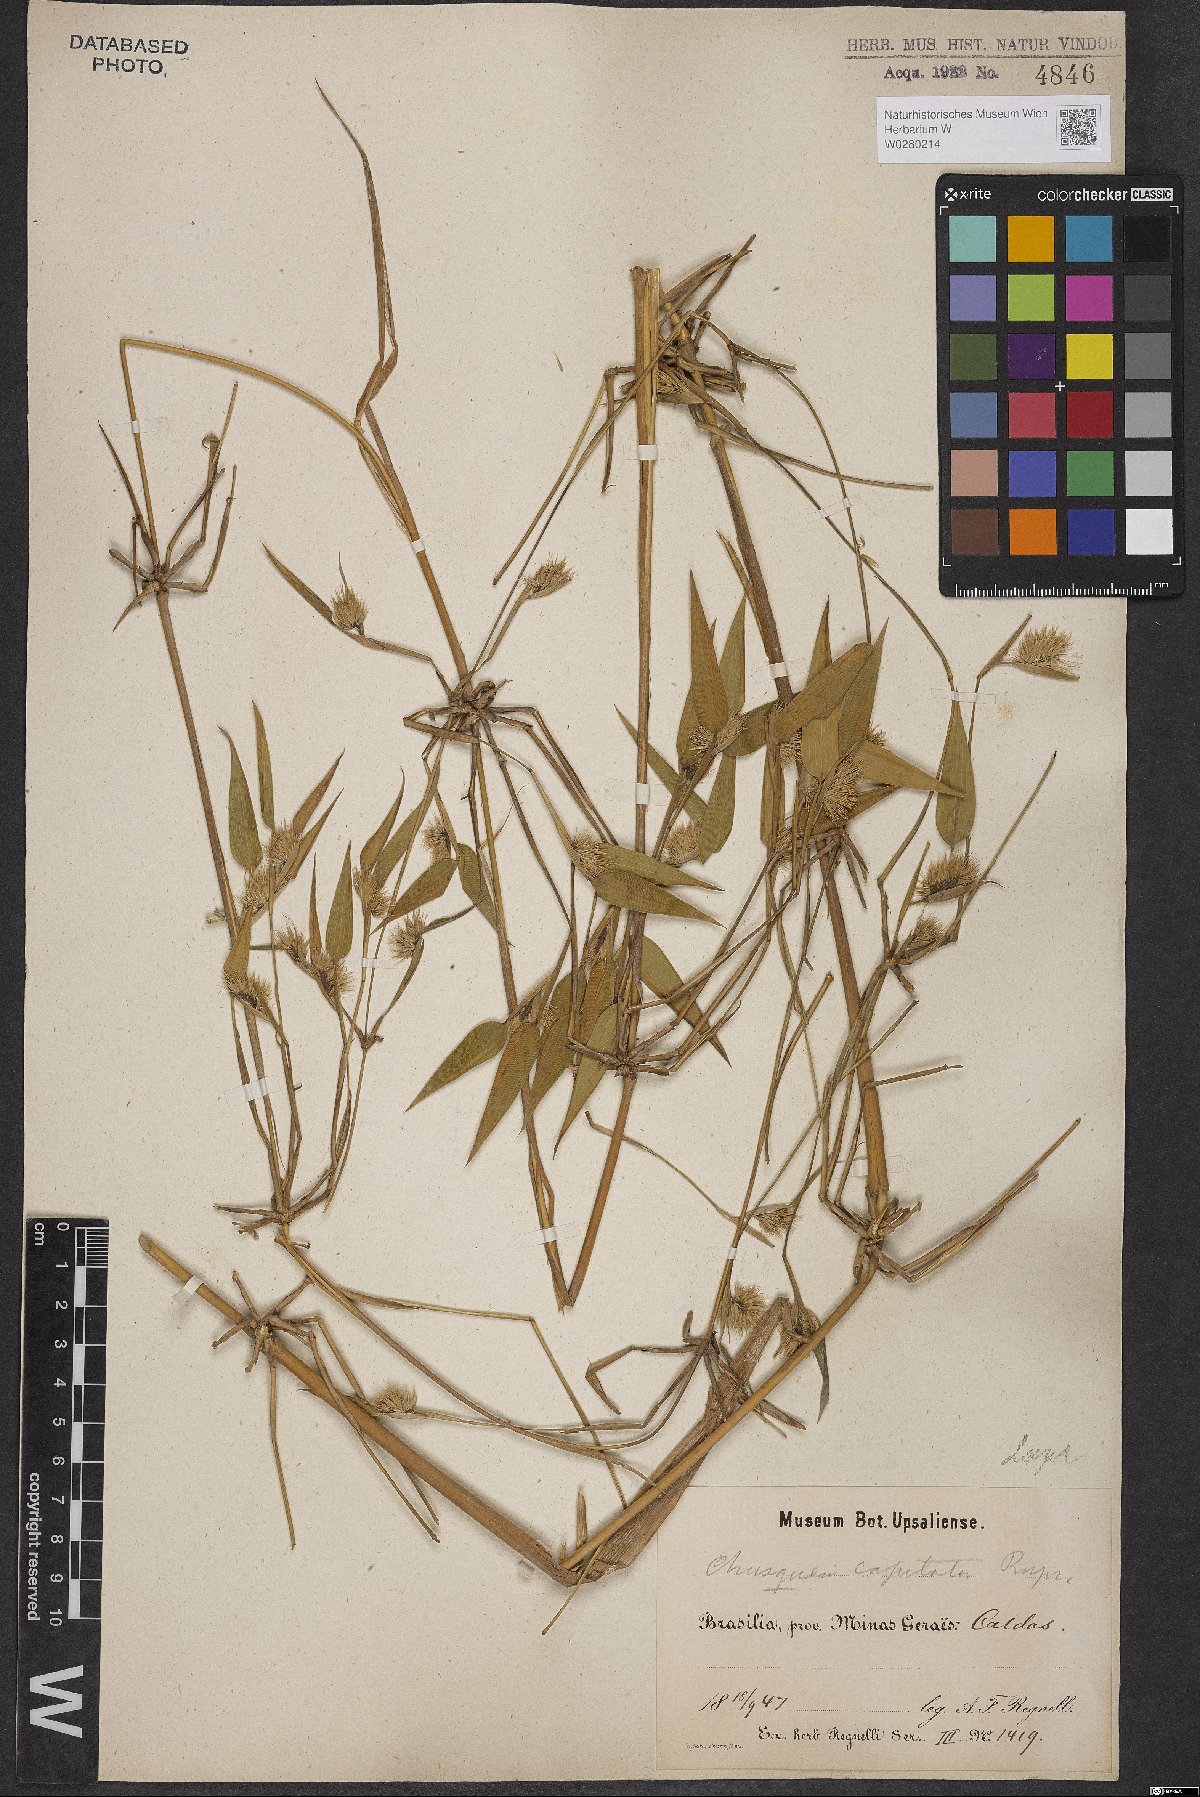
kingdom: Plantae
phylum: Tracheophyta
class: Liliopsida
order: Poales
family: Poaceae
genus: Chusquea
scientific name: Chusquea capitata
